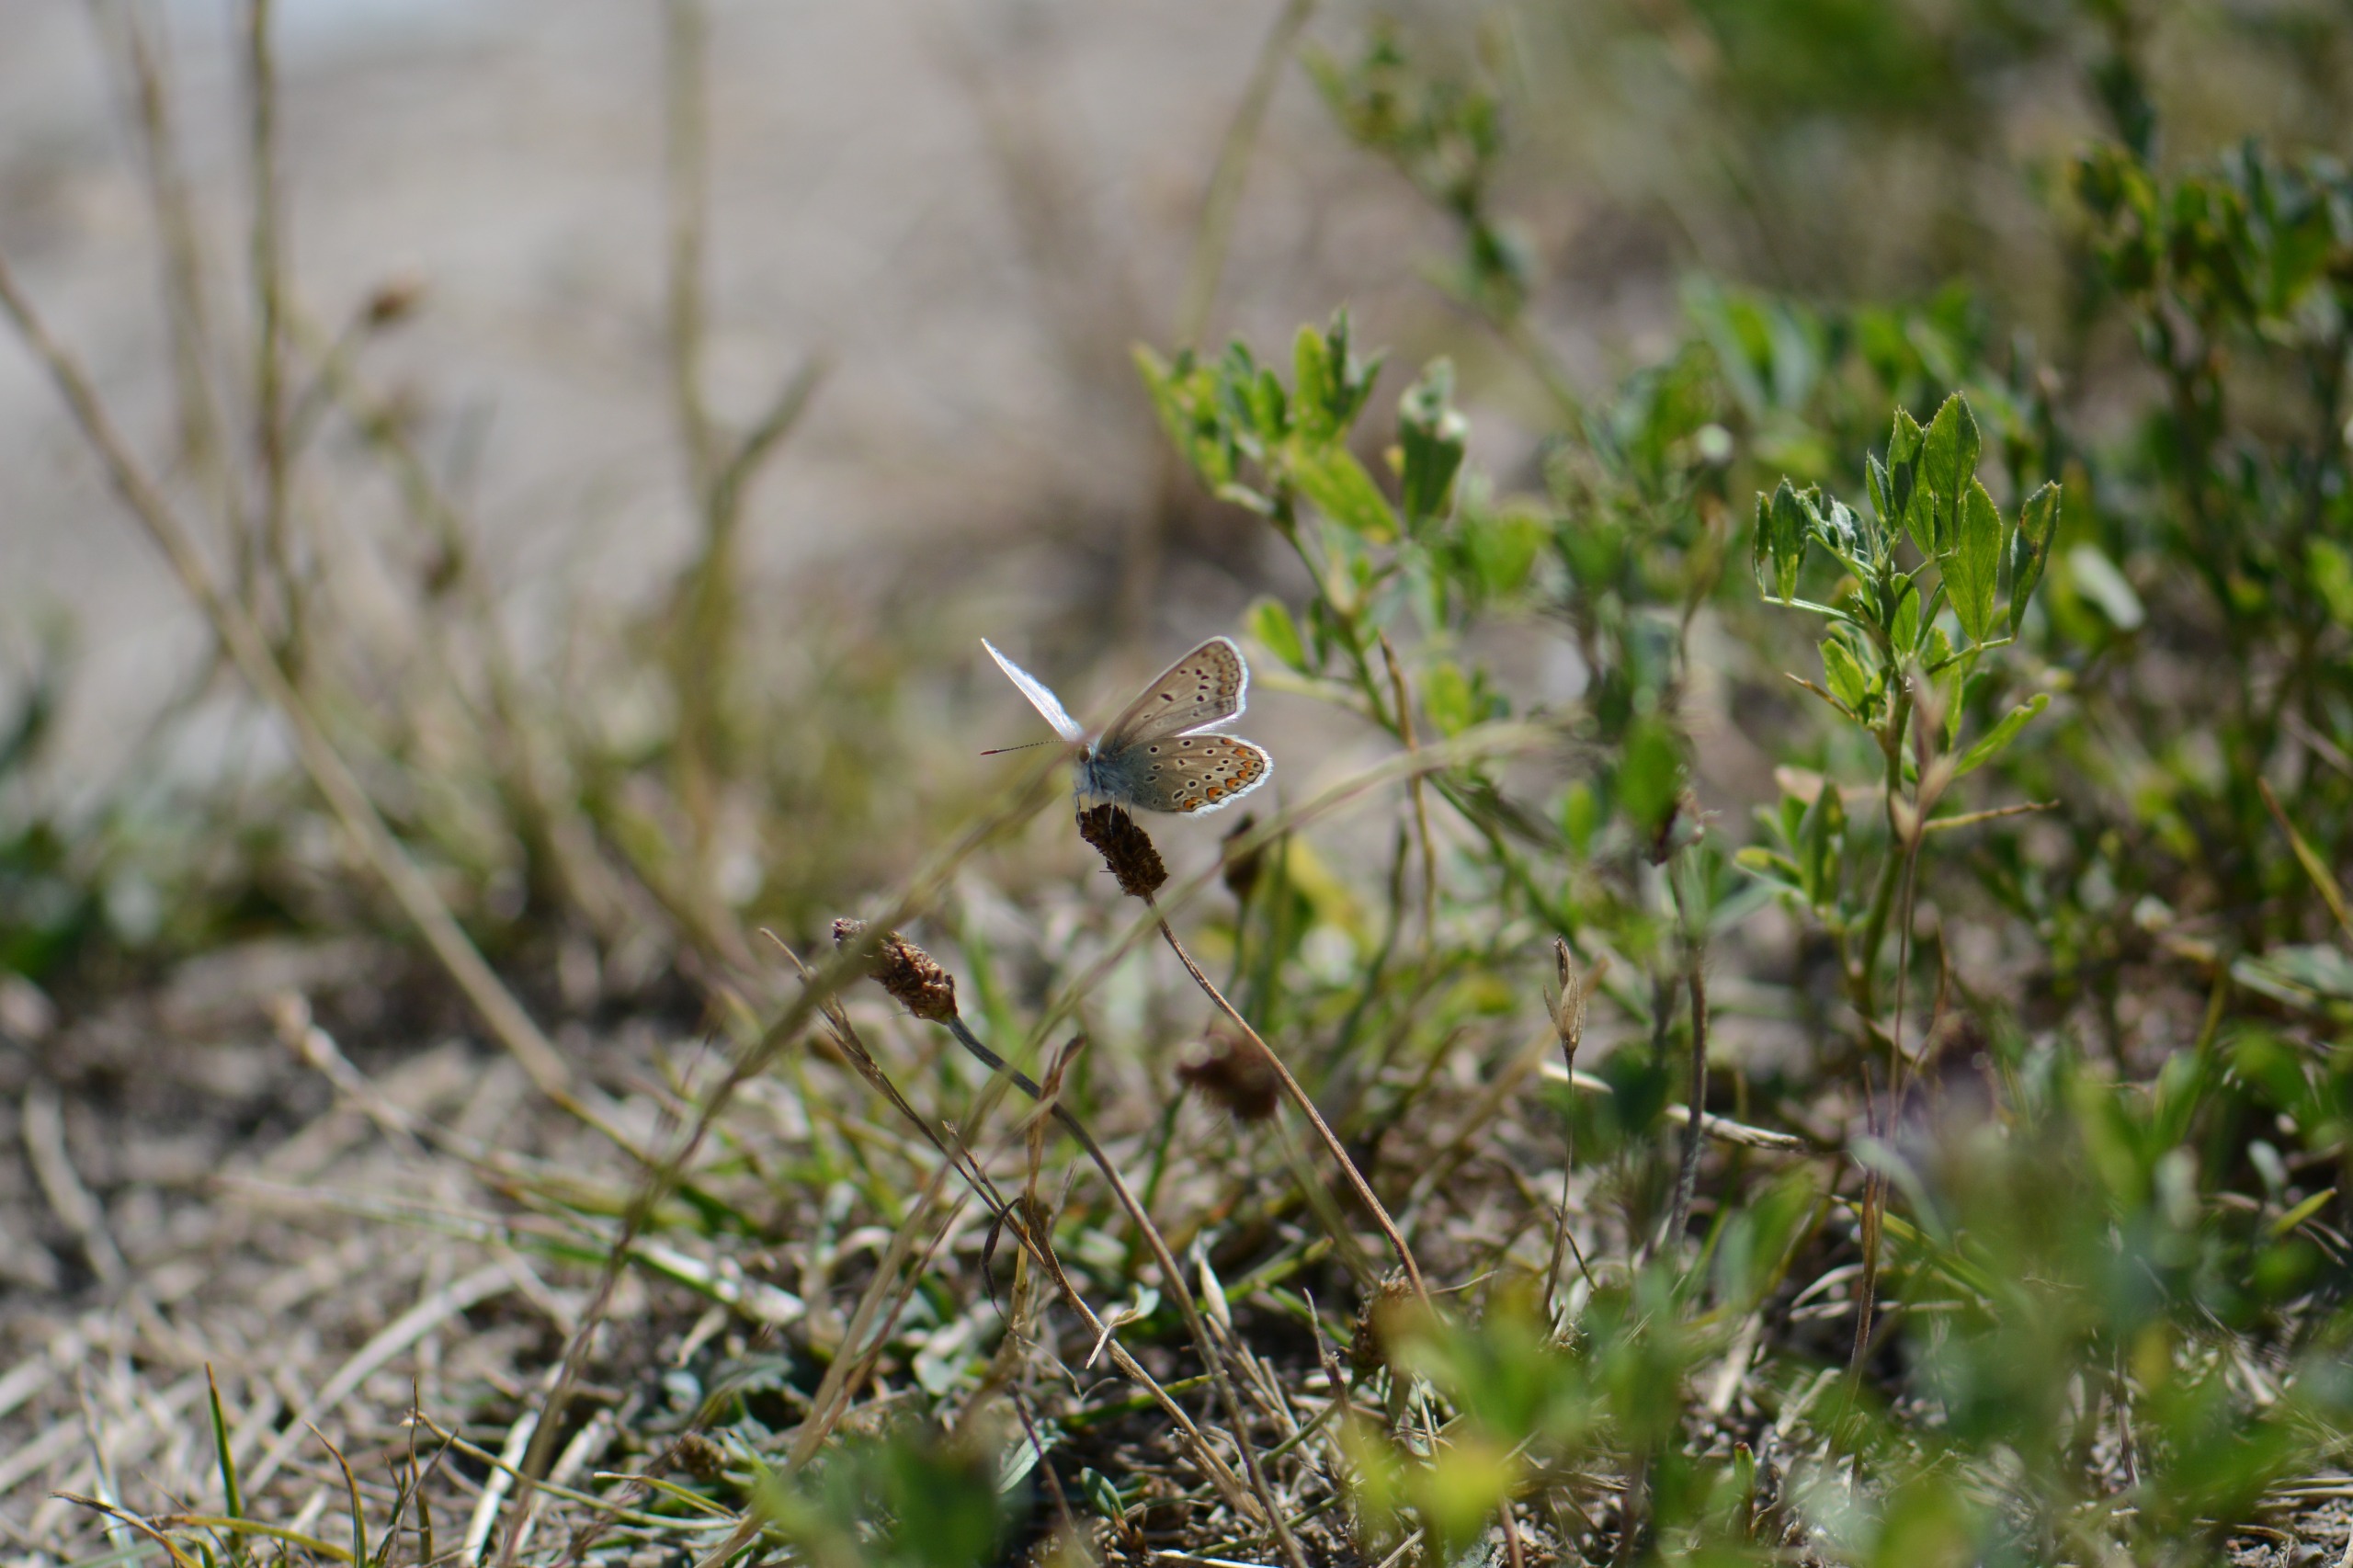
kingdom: Animalia
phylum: Arthropoda
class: Insecta
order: Lepidoptera
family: Lycaenidae
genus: Polyommatus
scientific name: Polyommatus icarus
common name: Almindelig blåfugl
